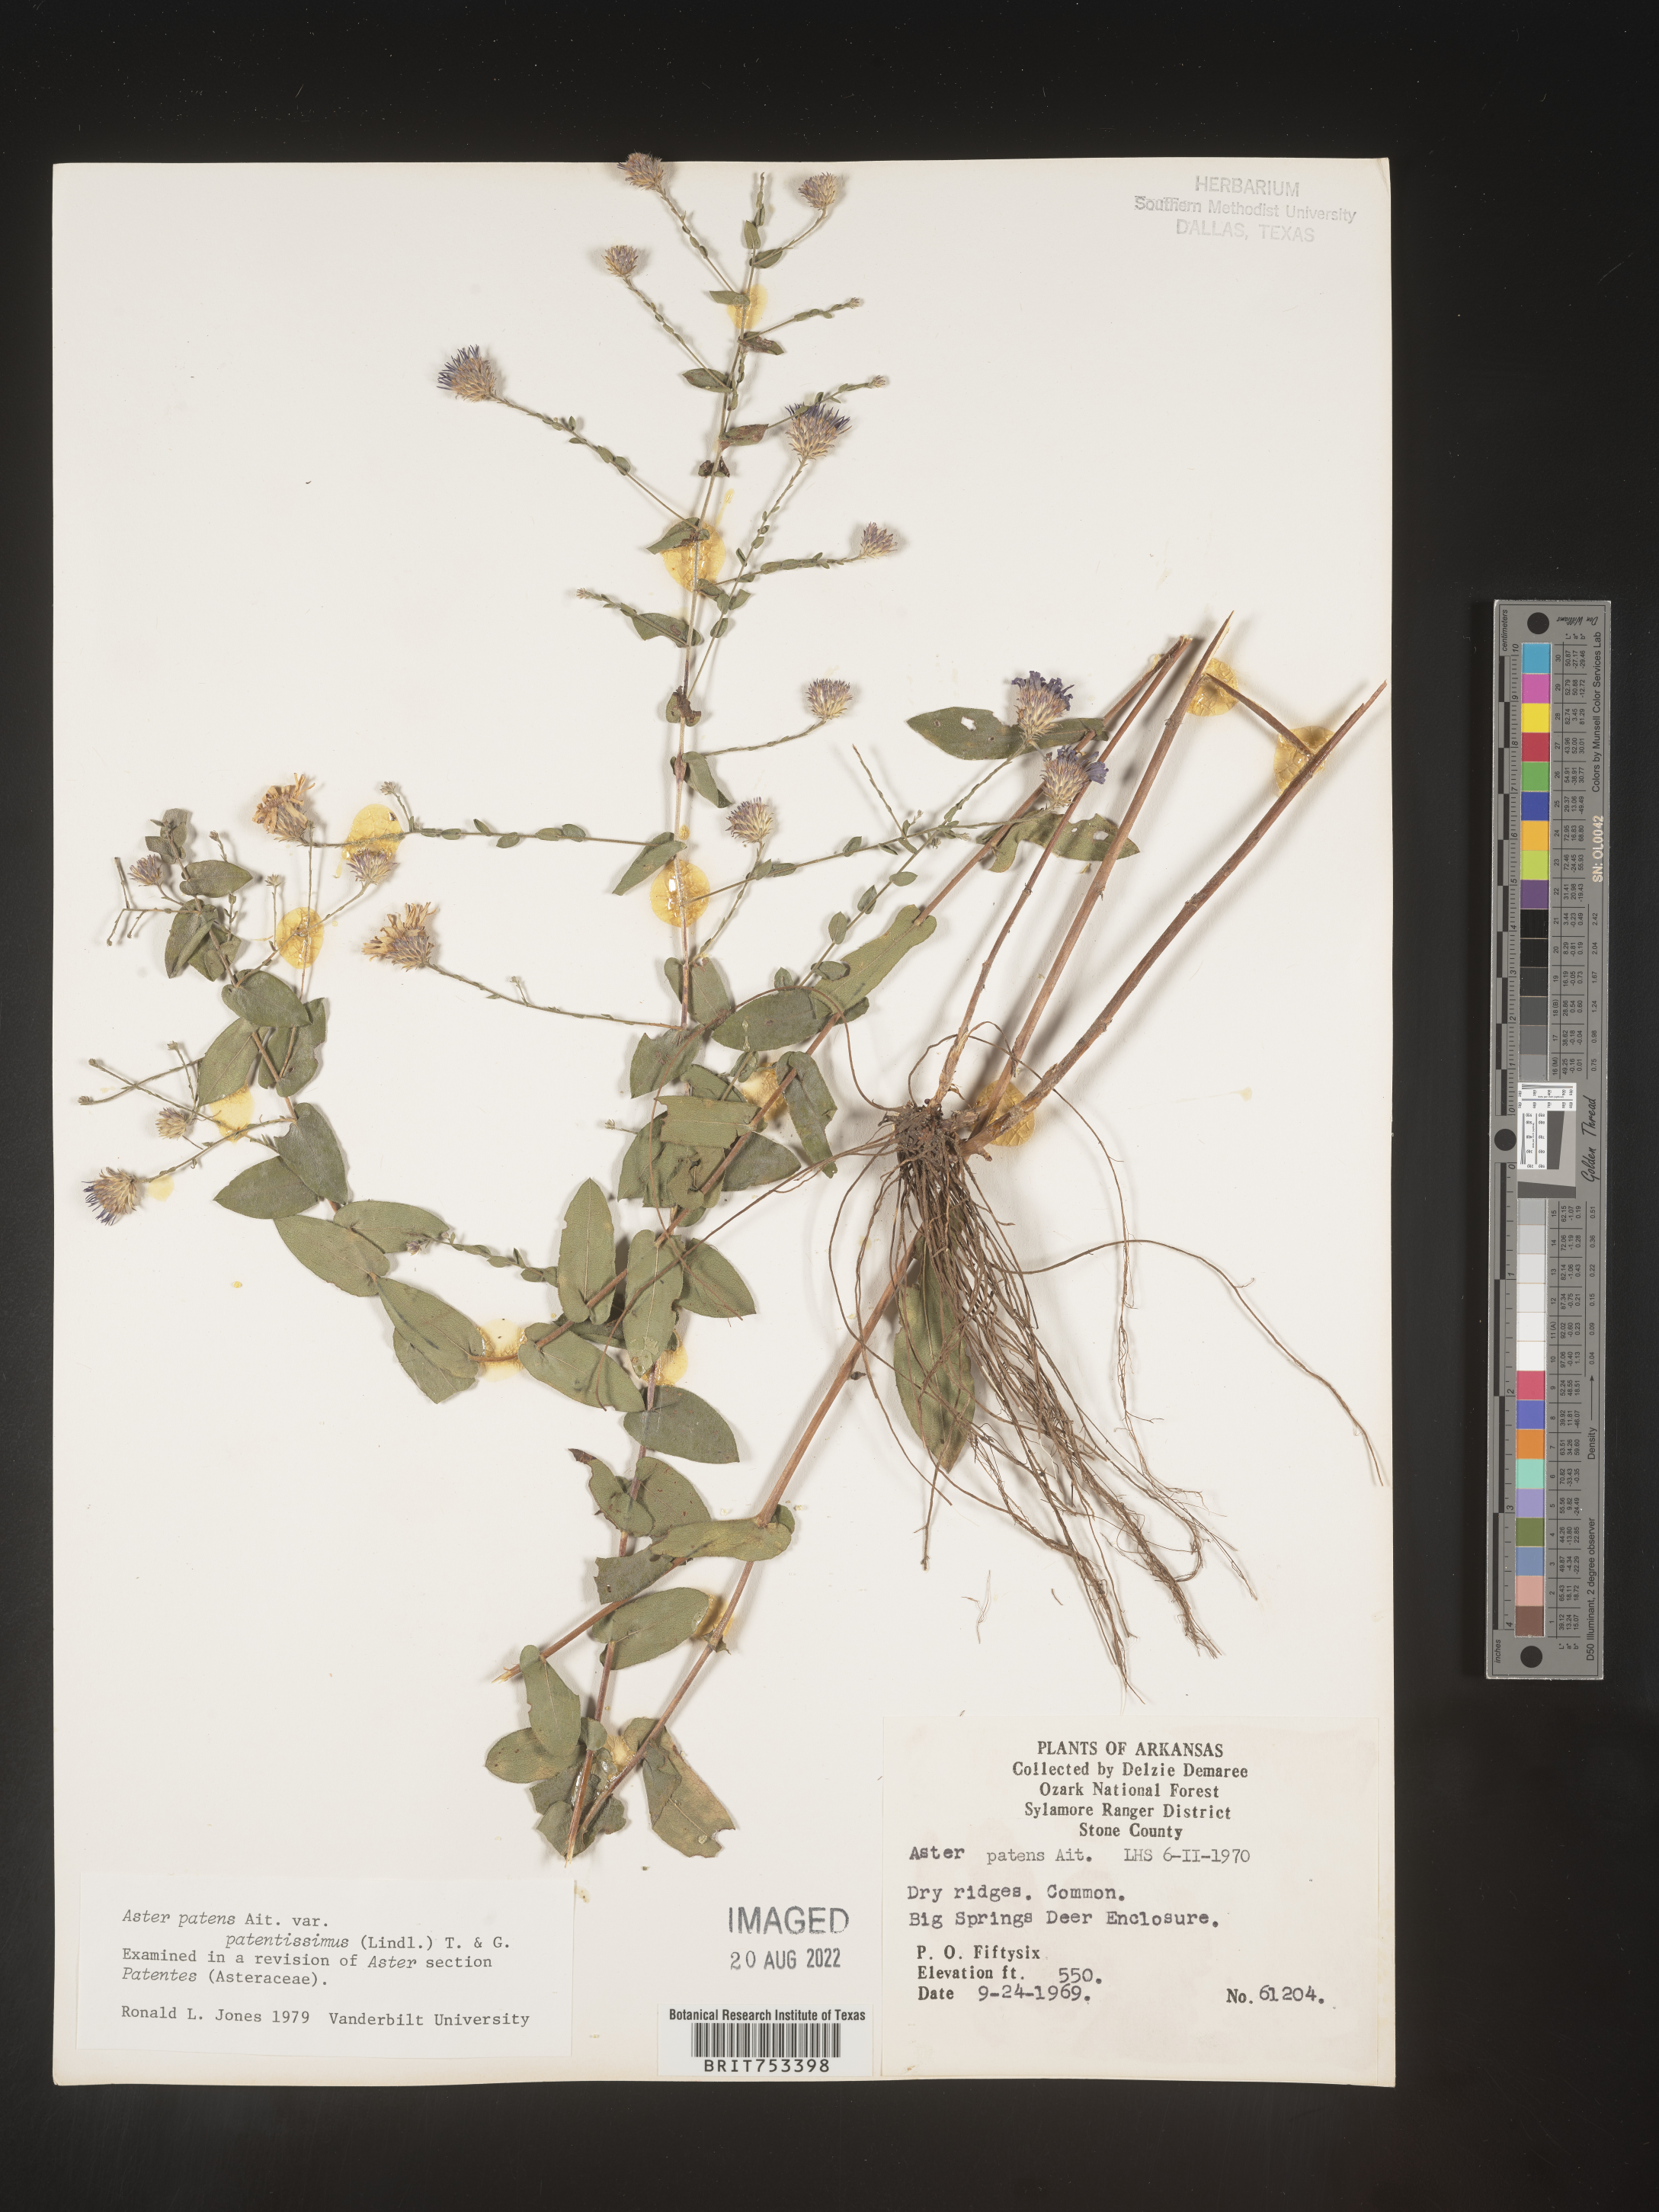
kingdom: Plantae
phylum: Tracheophyta
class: Magnoliopsida
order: Asterales
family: Asteraceae
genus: Symphyotrichum
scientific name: Symphyotrichum patens
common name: Late purple aster
